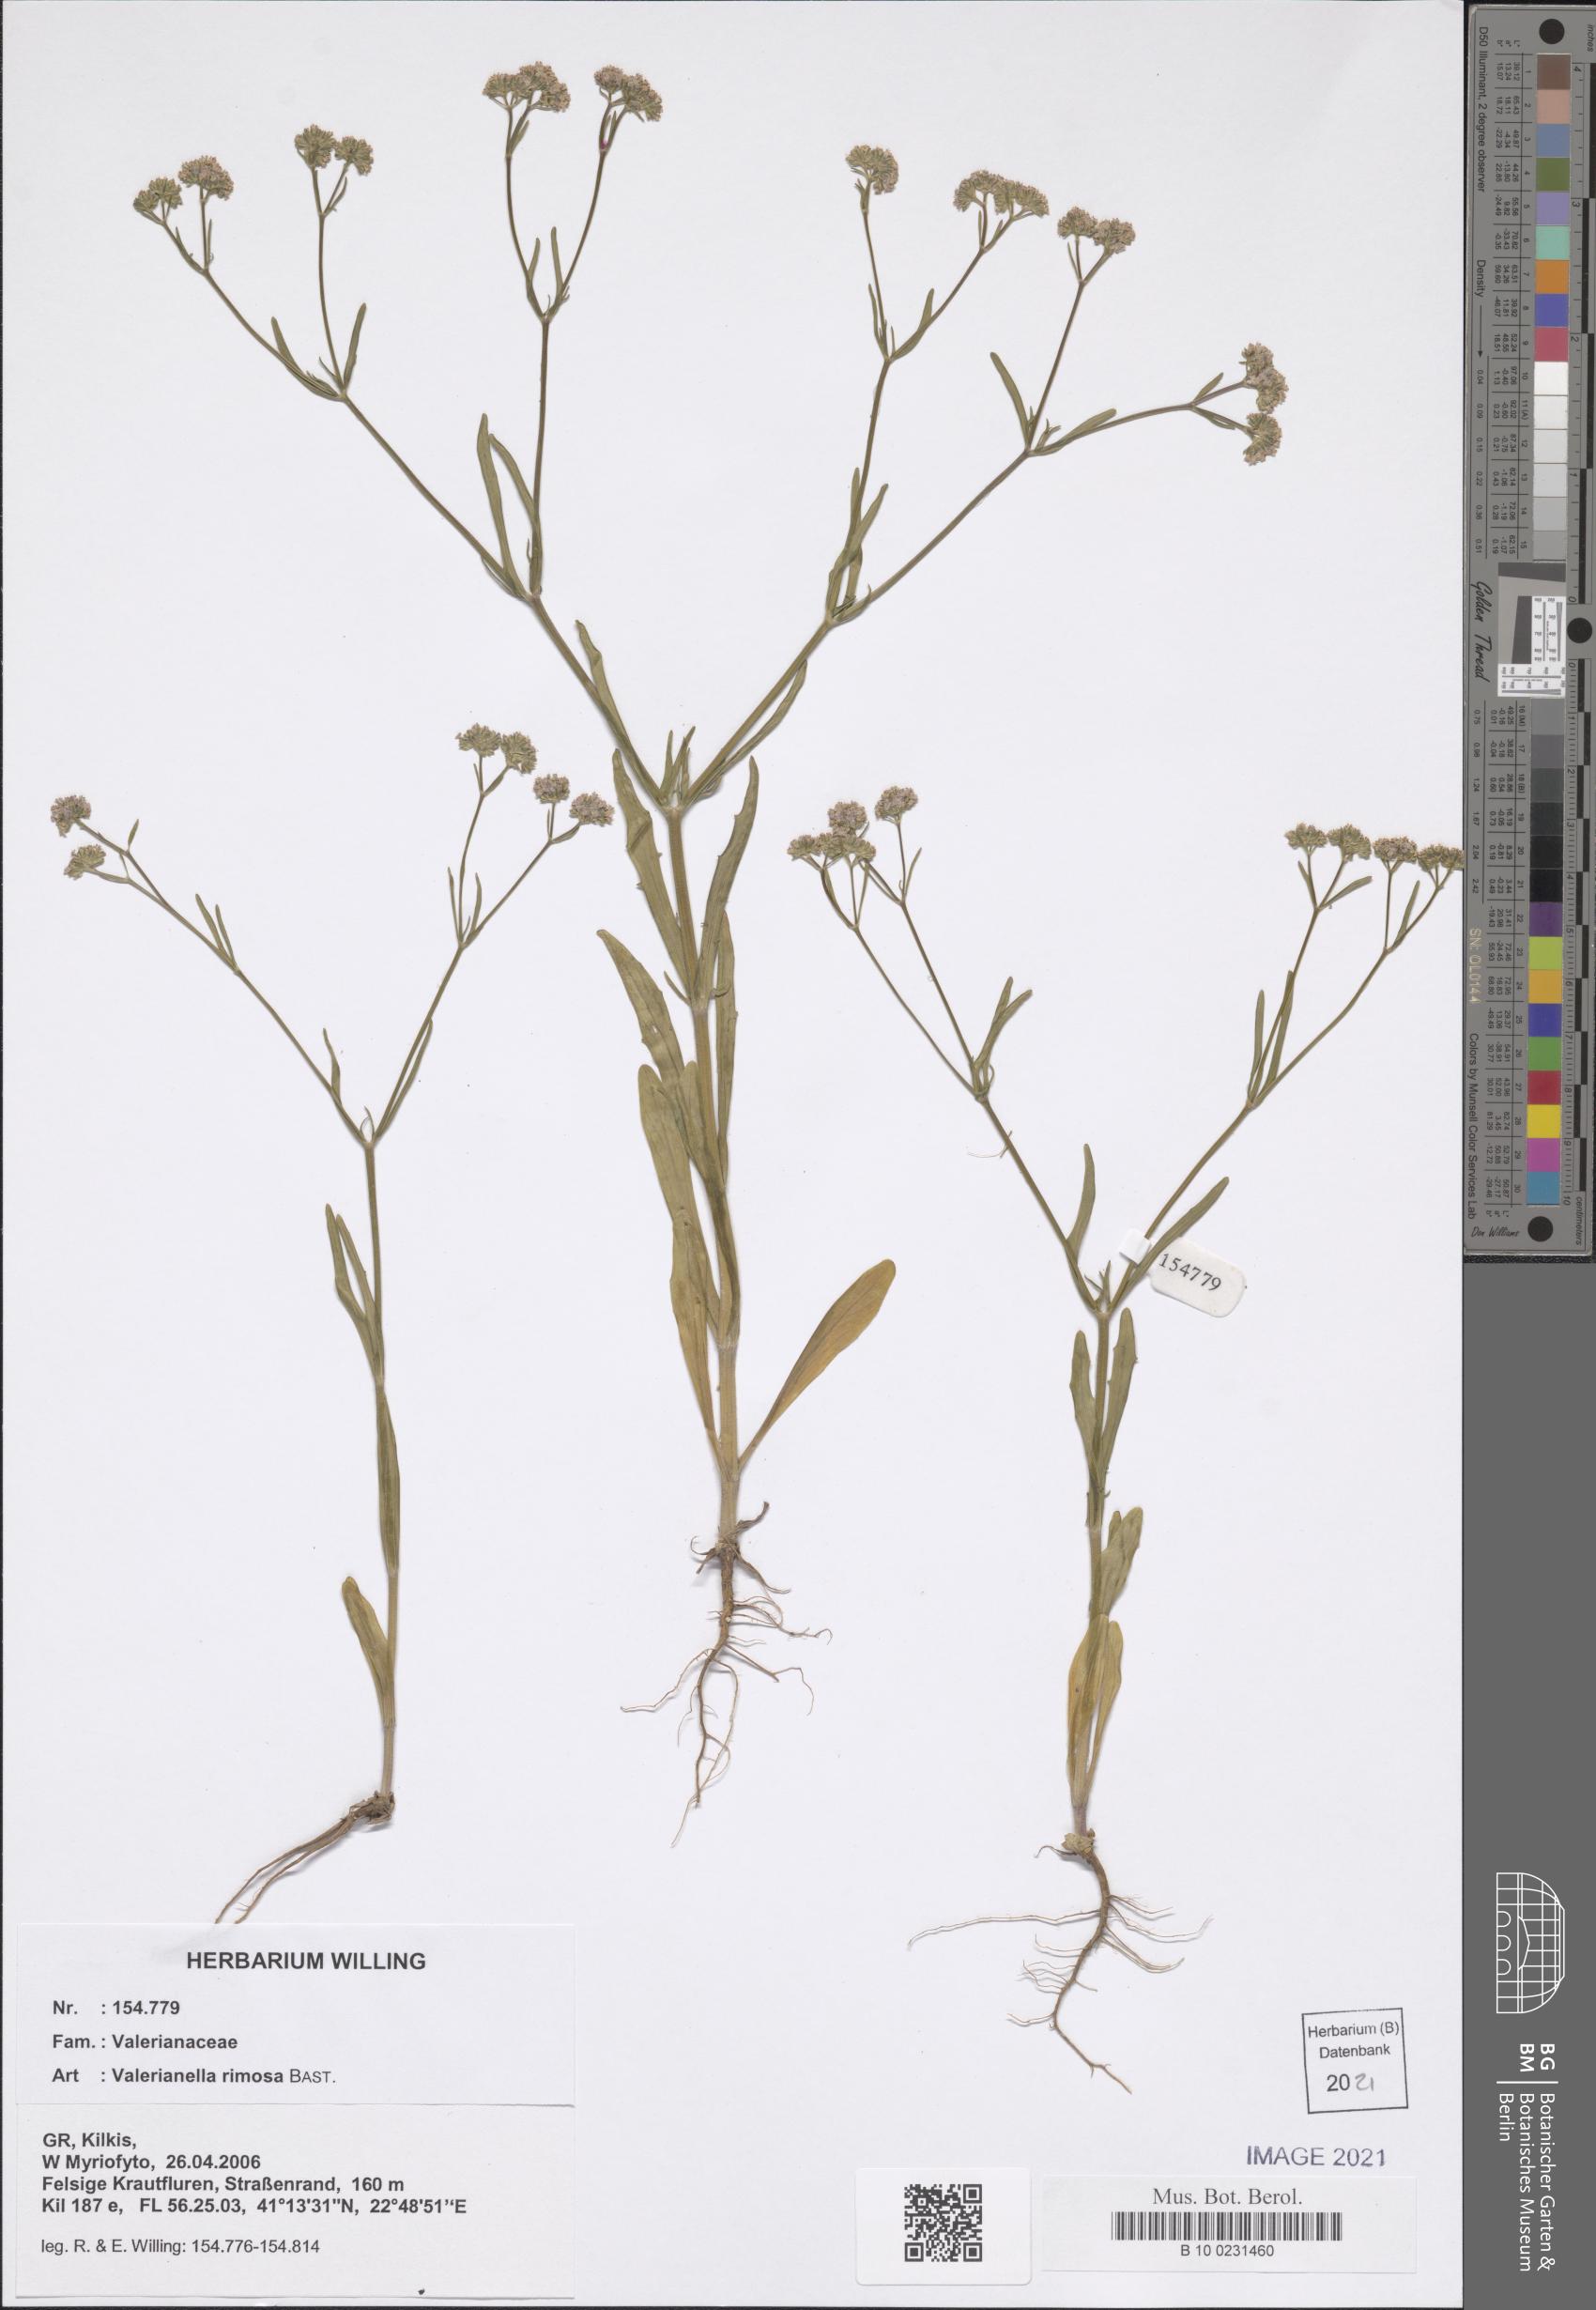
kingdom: Plantae
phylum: Tracheophyta
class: Magnoliopsida
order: Dipsacales
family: Caprifoliaceae
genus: Valerianella
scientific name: Valerianella rimosa
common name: Broad-fruited cornsalad
